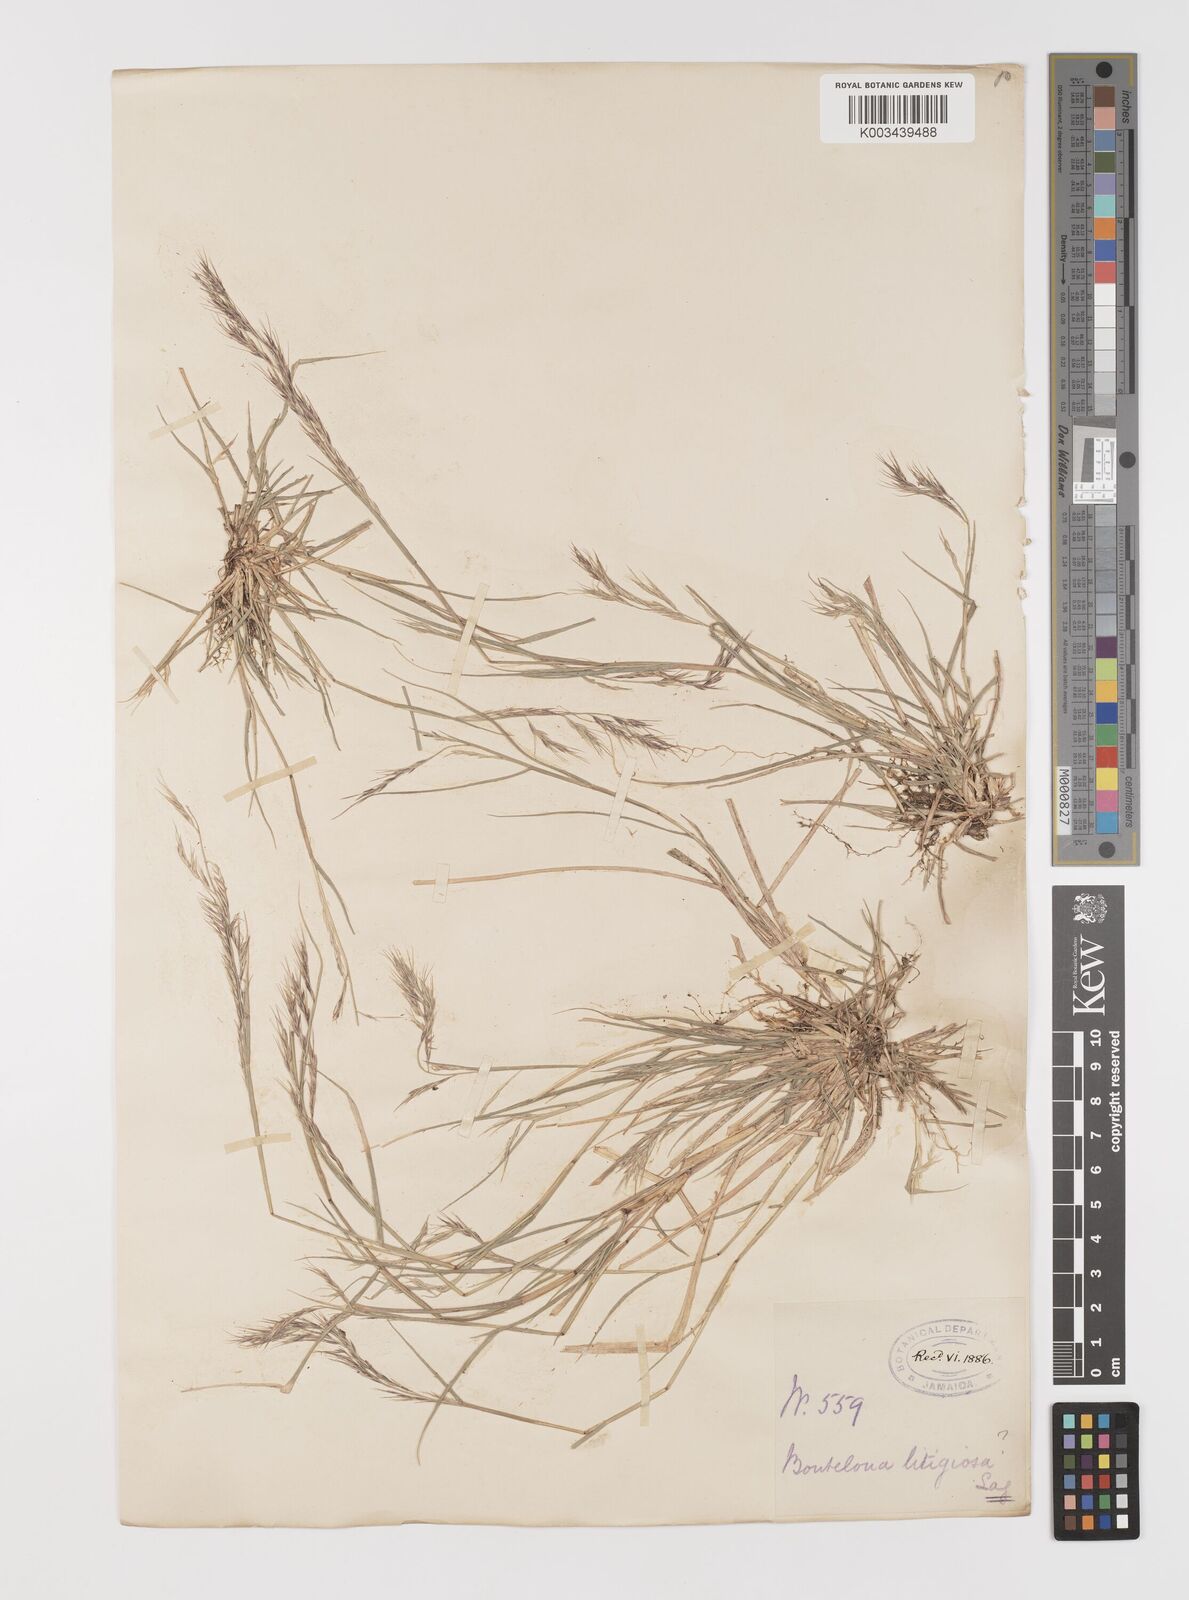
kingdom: Plantae
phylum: Tracheophyta
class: Liliopsida
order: Poales
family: Poaceae
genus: Bouteloua
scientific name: Bouteloua americana
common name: Mule grass
